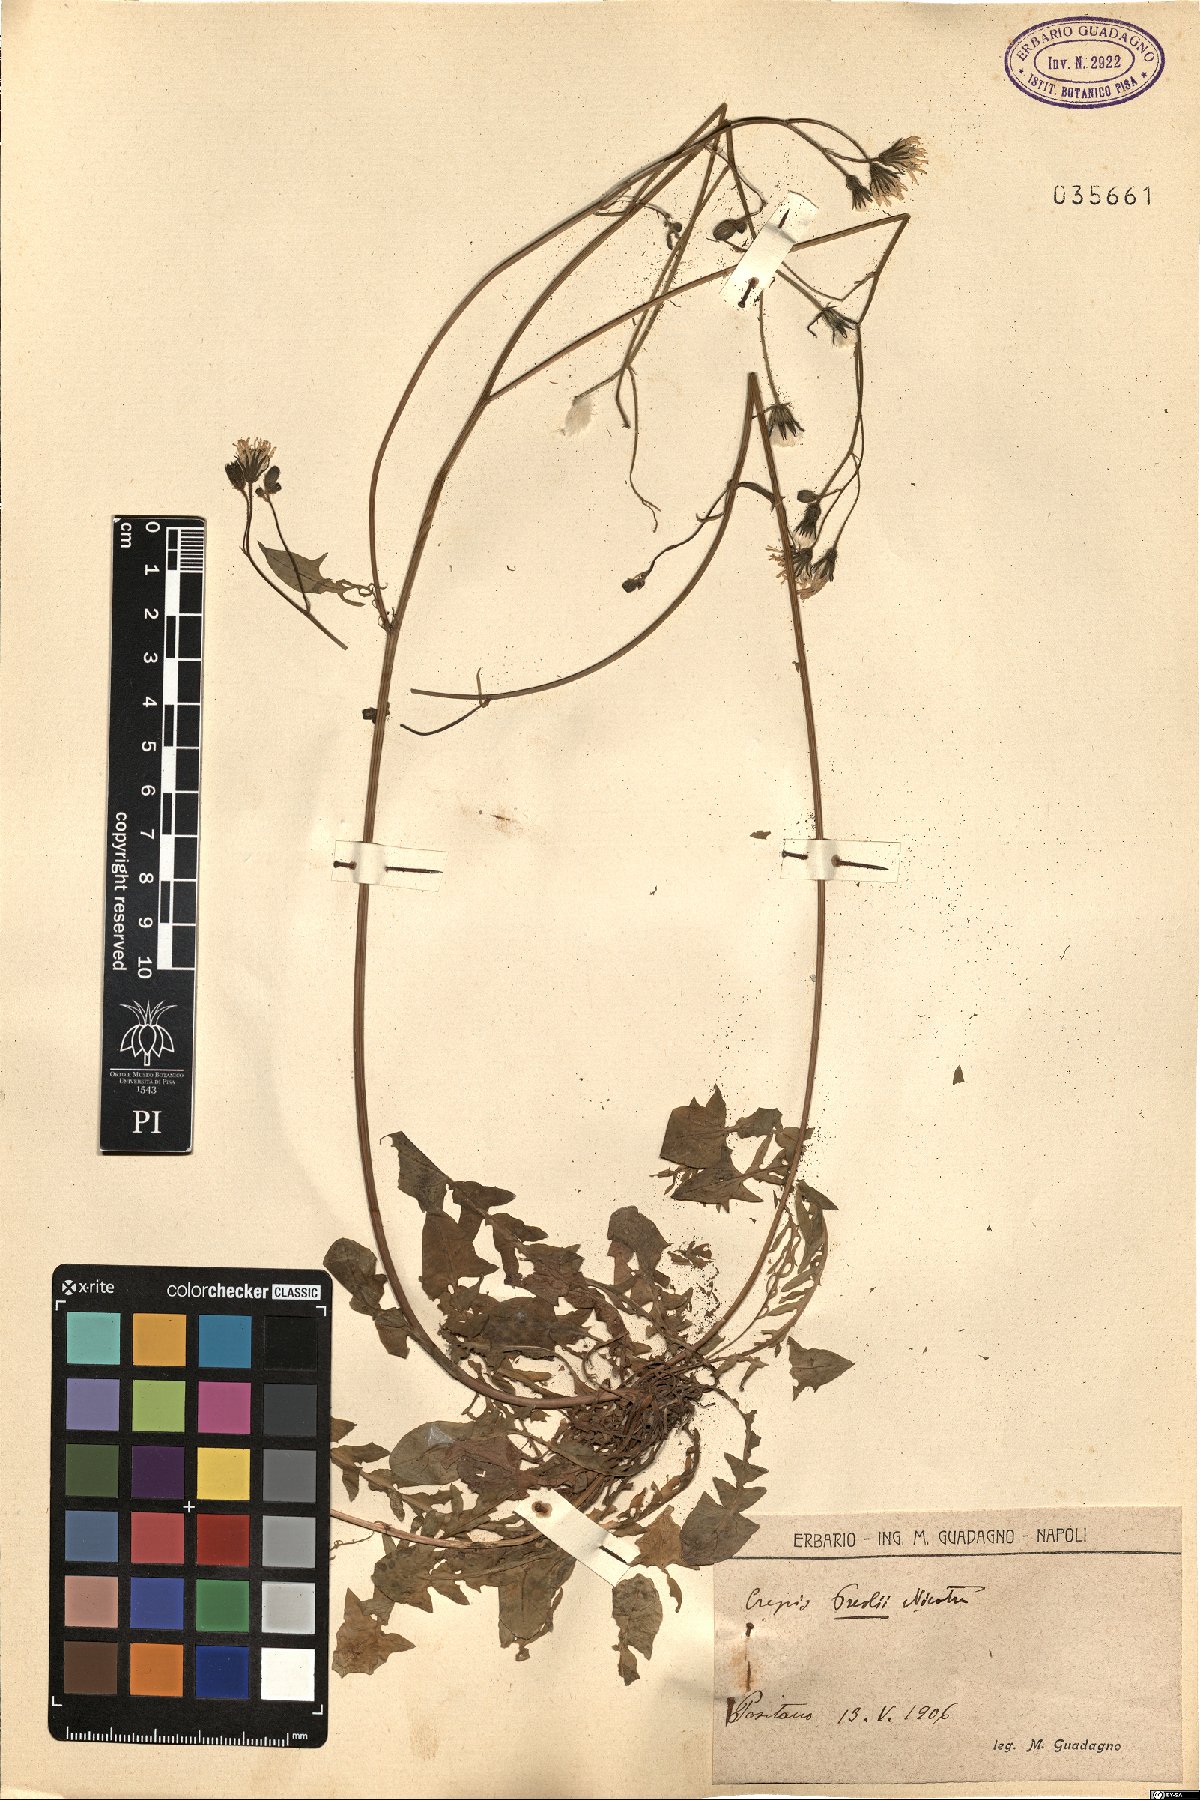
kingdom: Plantae
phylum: Tracheophyta
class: Magnoliopsida
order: Asterales
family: Asteraceae
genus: Crepis
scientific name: Crepis
